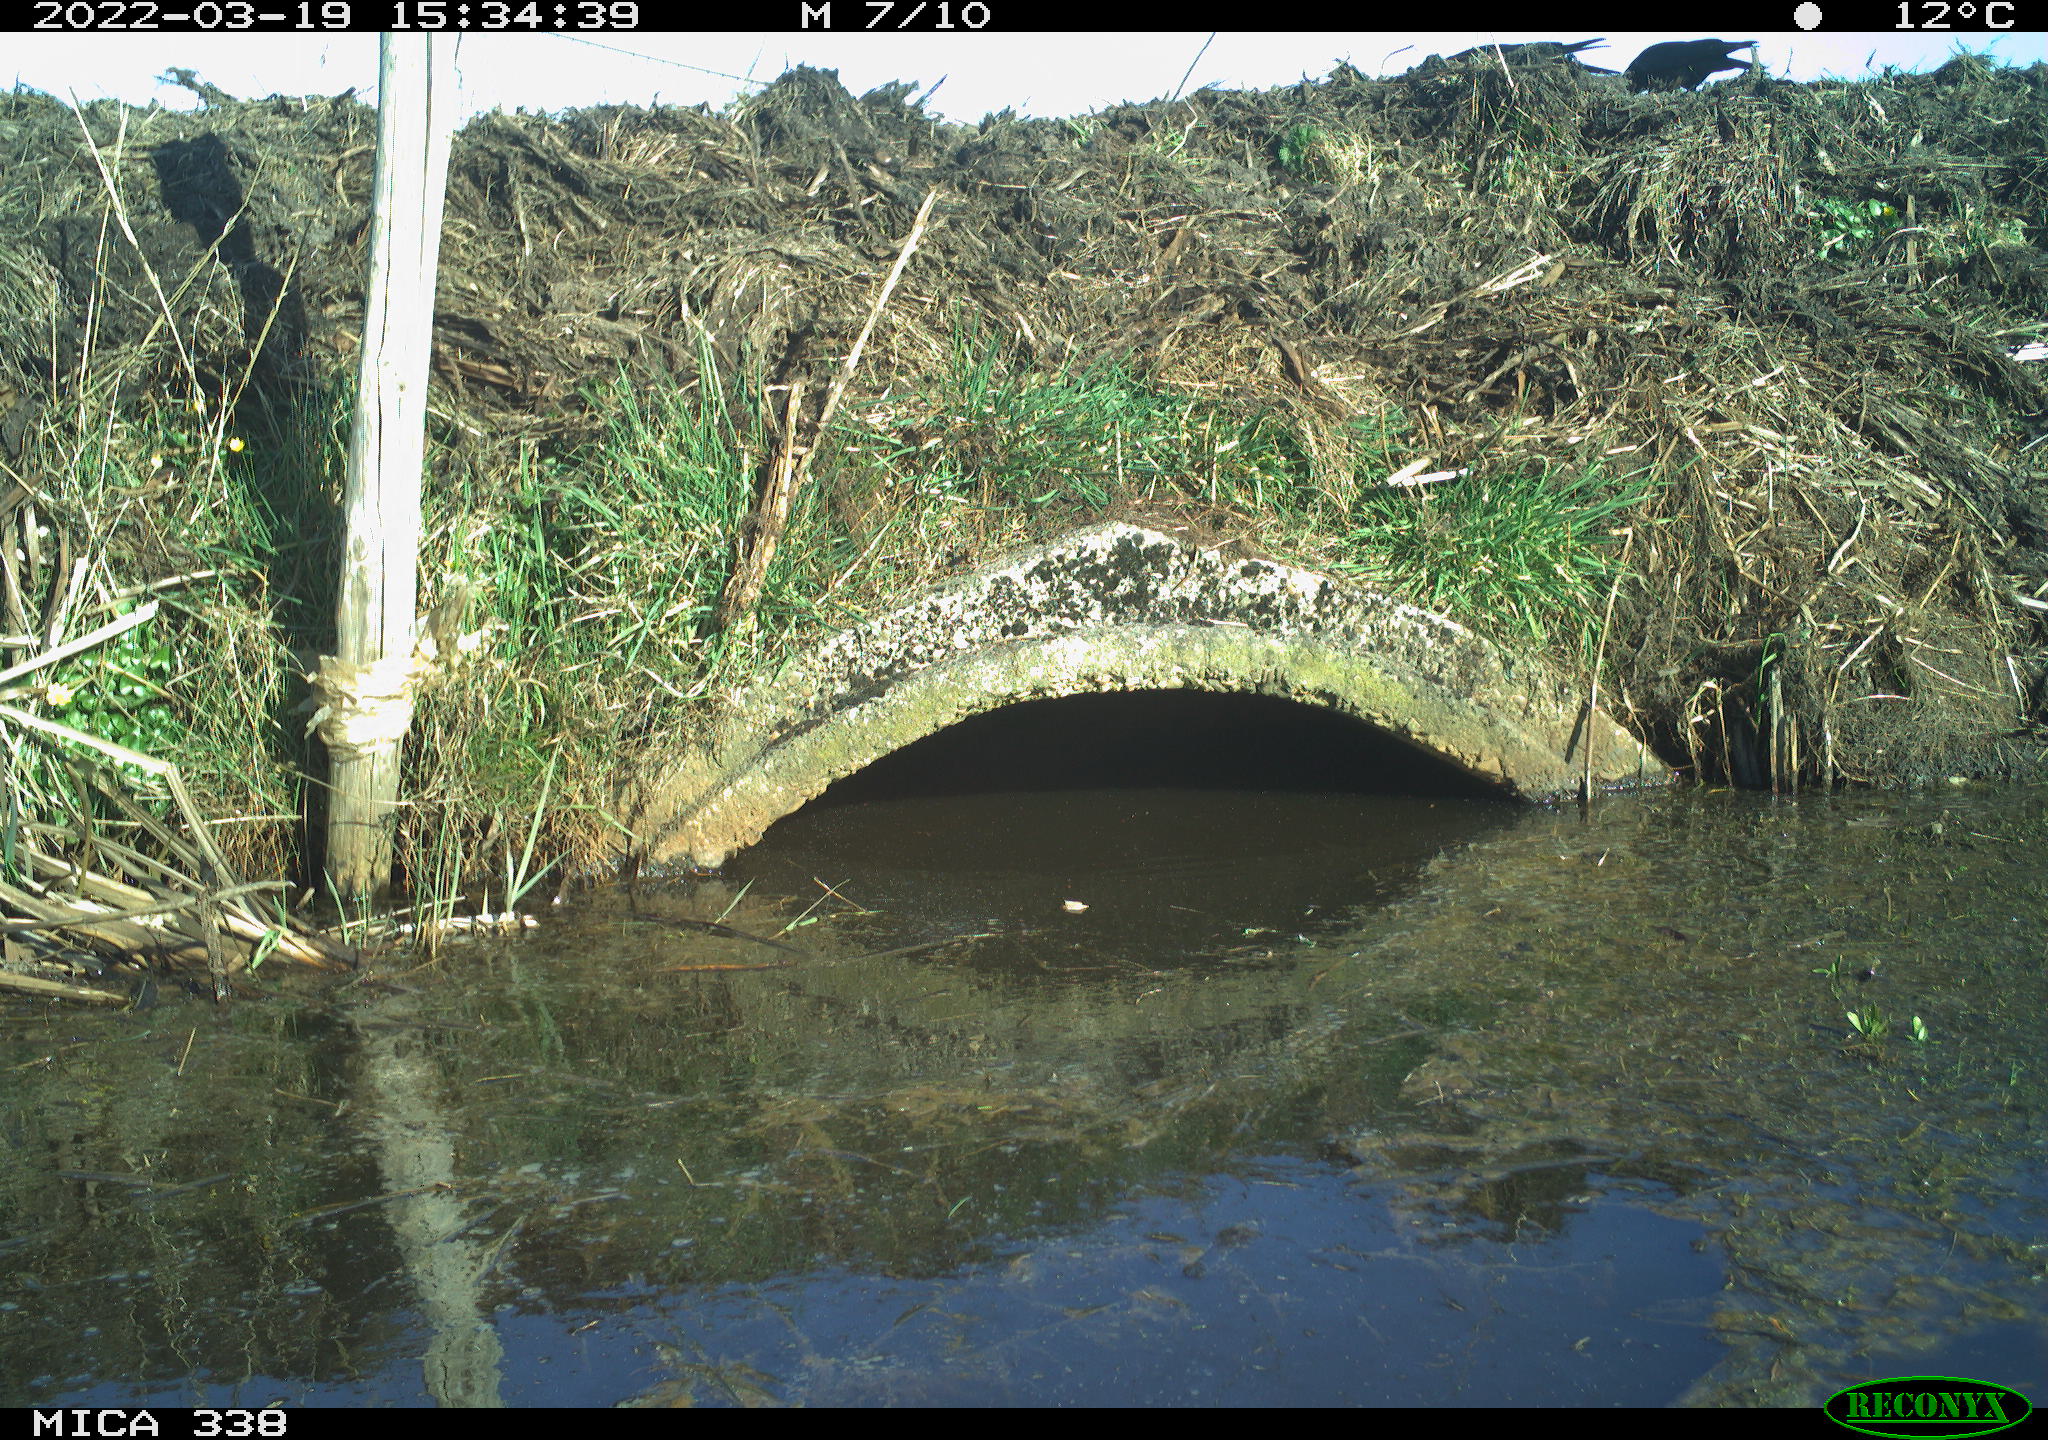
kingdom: Animalia
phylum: Chordata
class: Aves
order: Passeriformes
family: Corvidae
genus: Corvus
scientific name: Corvus corone
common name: Carrion crow
